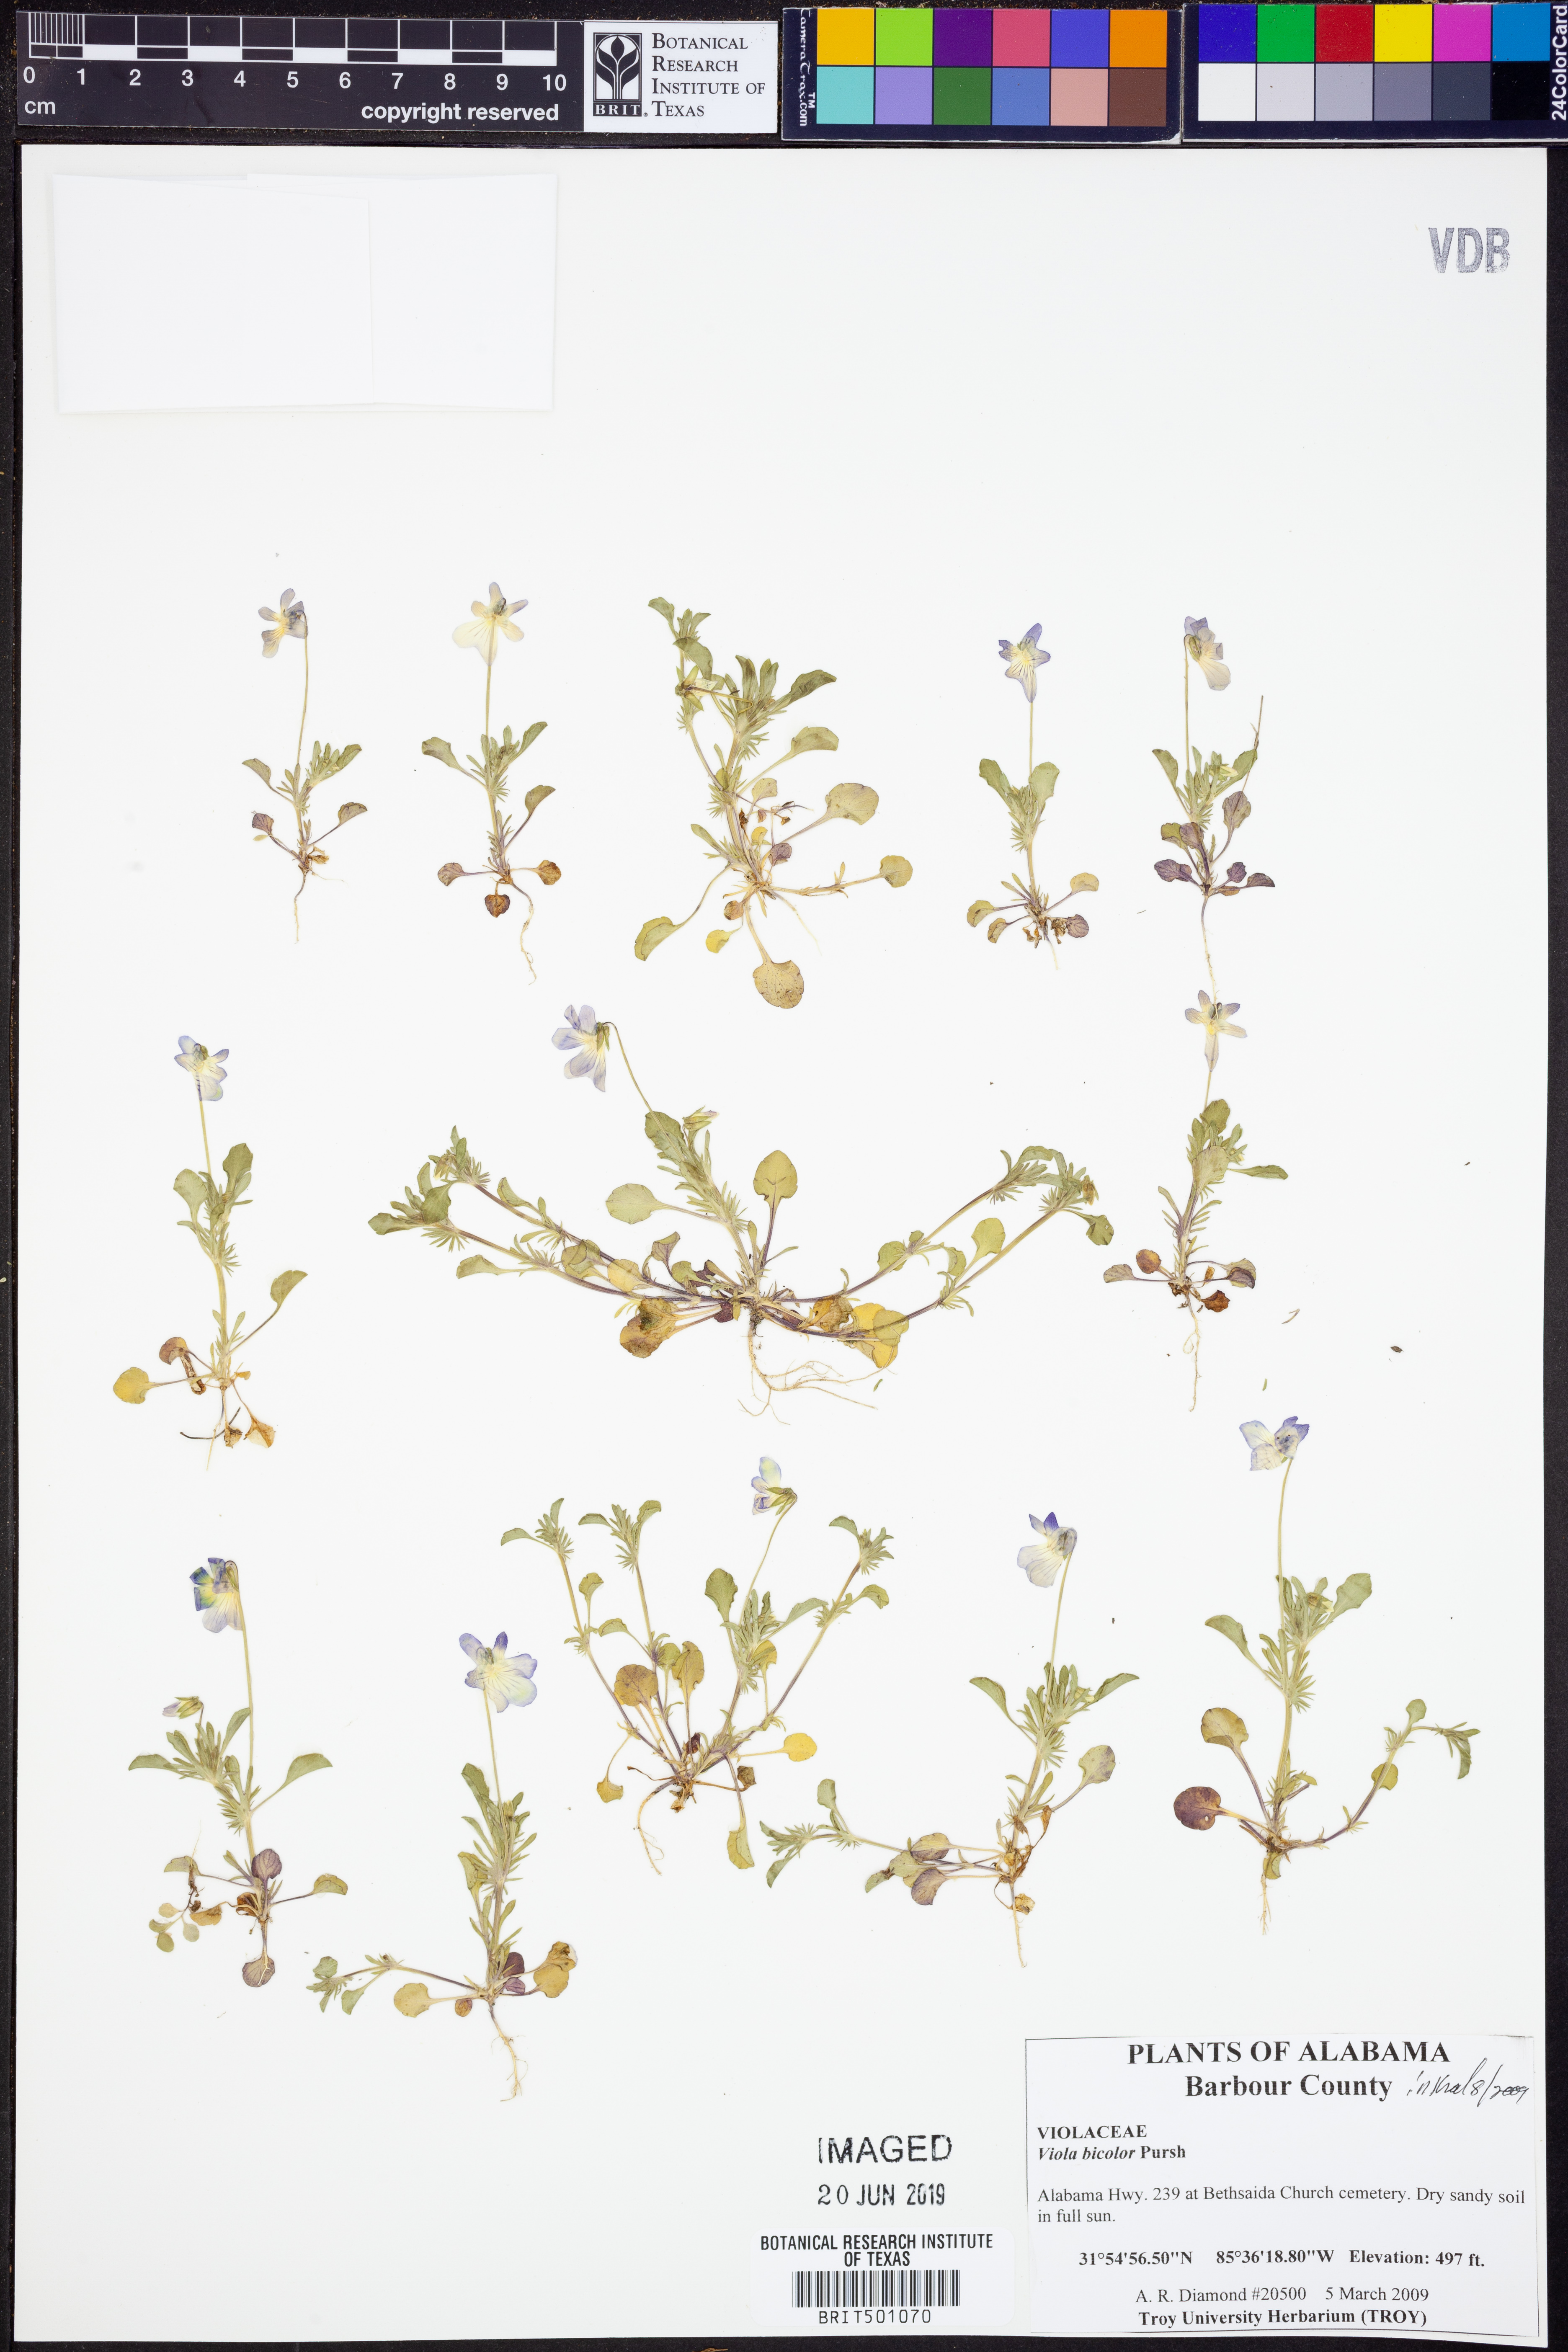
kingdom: Plantae
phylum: Tracheophyta
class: Magnoliopsida
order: Malpighiales
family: Violaceae
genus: Viola
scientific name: Viola rafinesquei
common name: American field pansy
